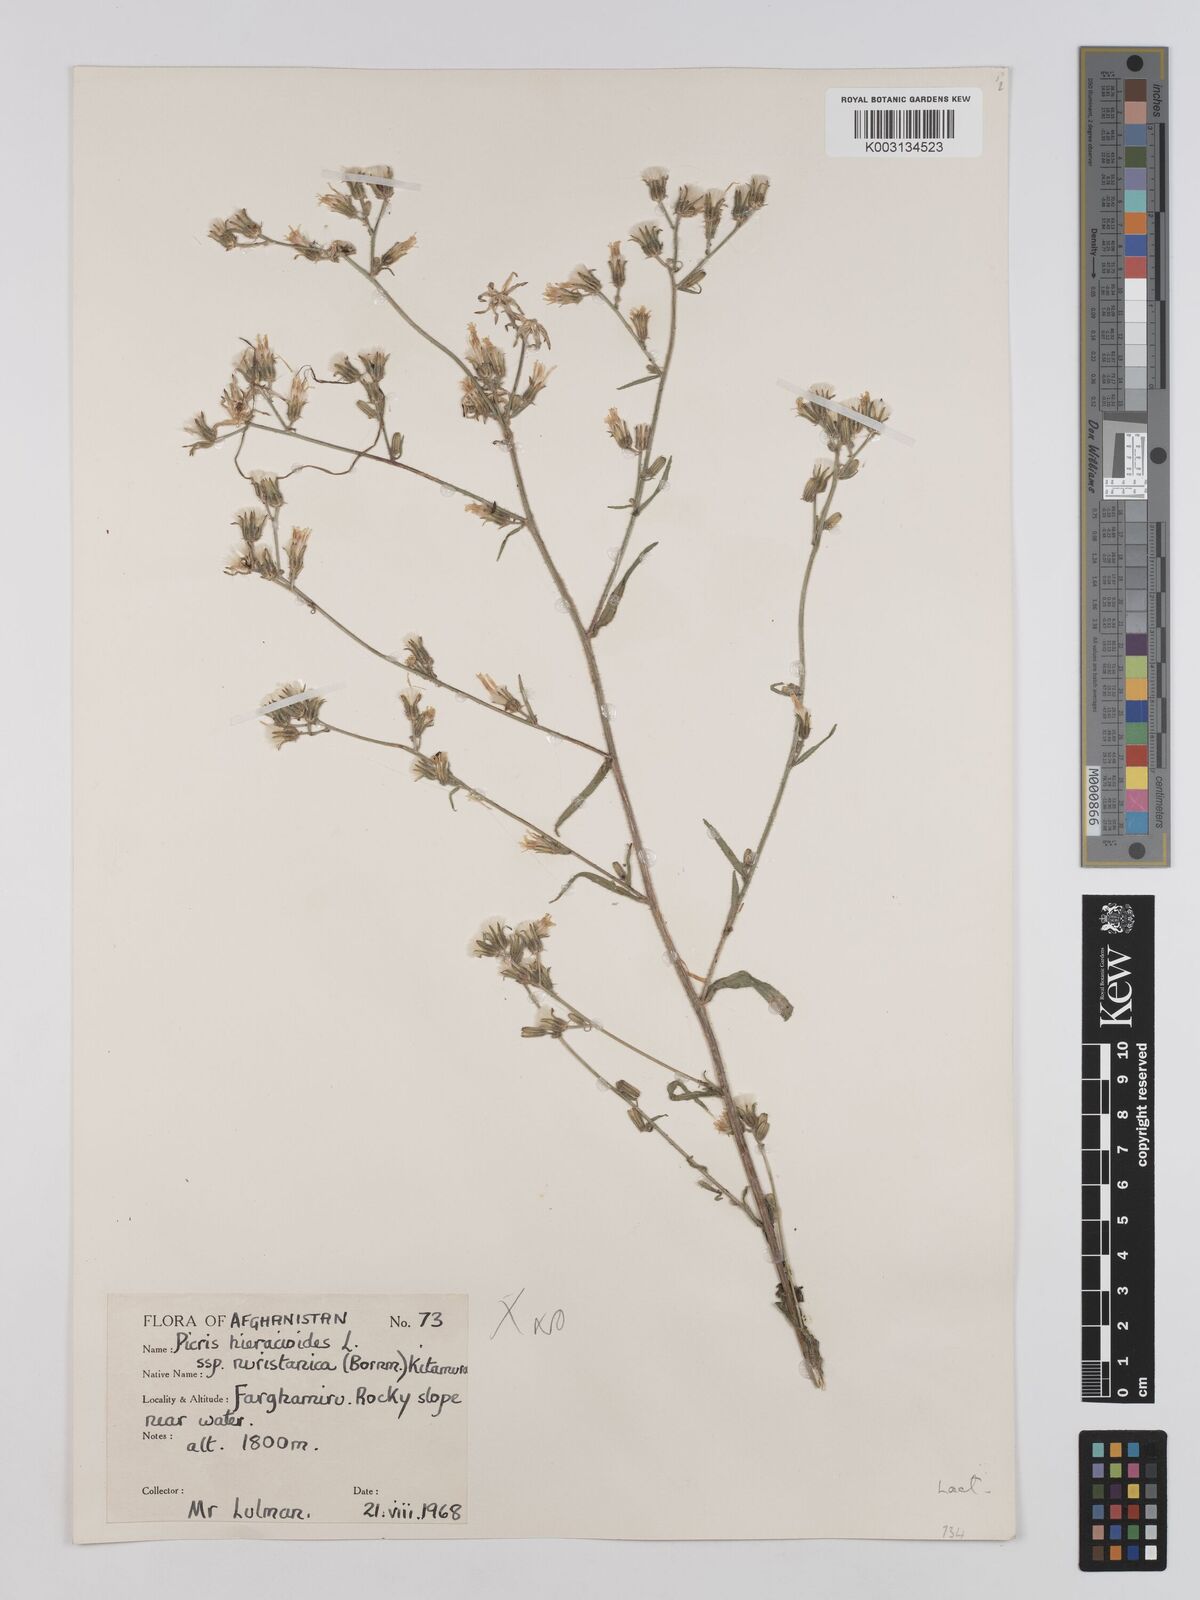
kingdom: Plantae
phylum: Tracheophyta
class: Magnoliopsida
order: Asterales
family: Asteraceae
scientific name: Asteraceae
